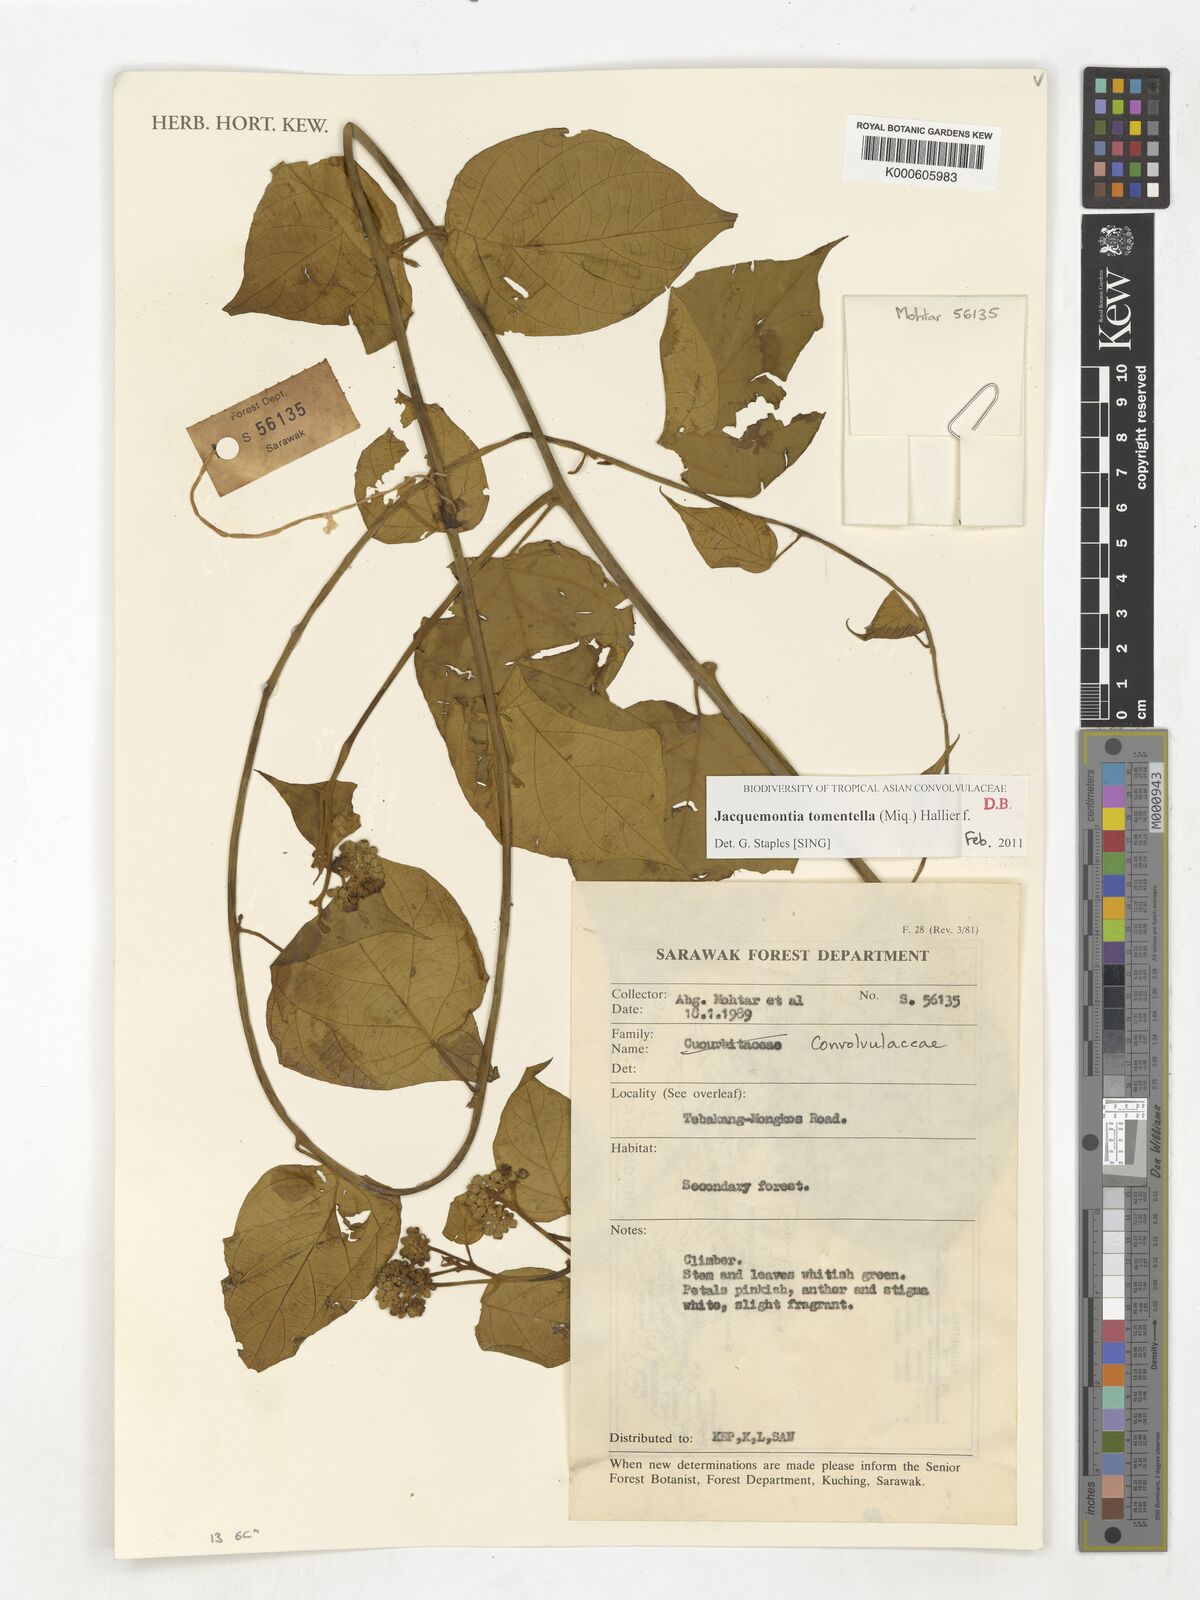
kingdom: Plantae
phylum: Tracheophyta
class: Magnoliopsida
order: Solanales
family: Convolvulaceae
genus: Jacquemontia
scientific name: Jacquemontia tomentella
